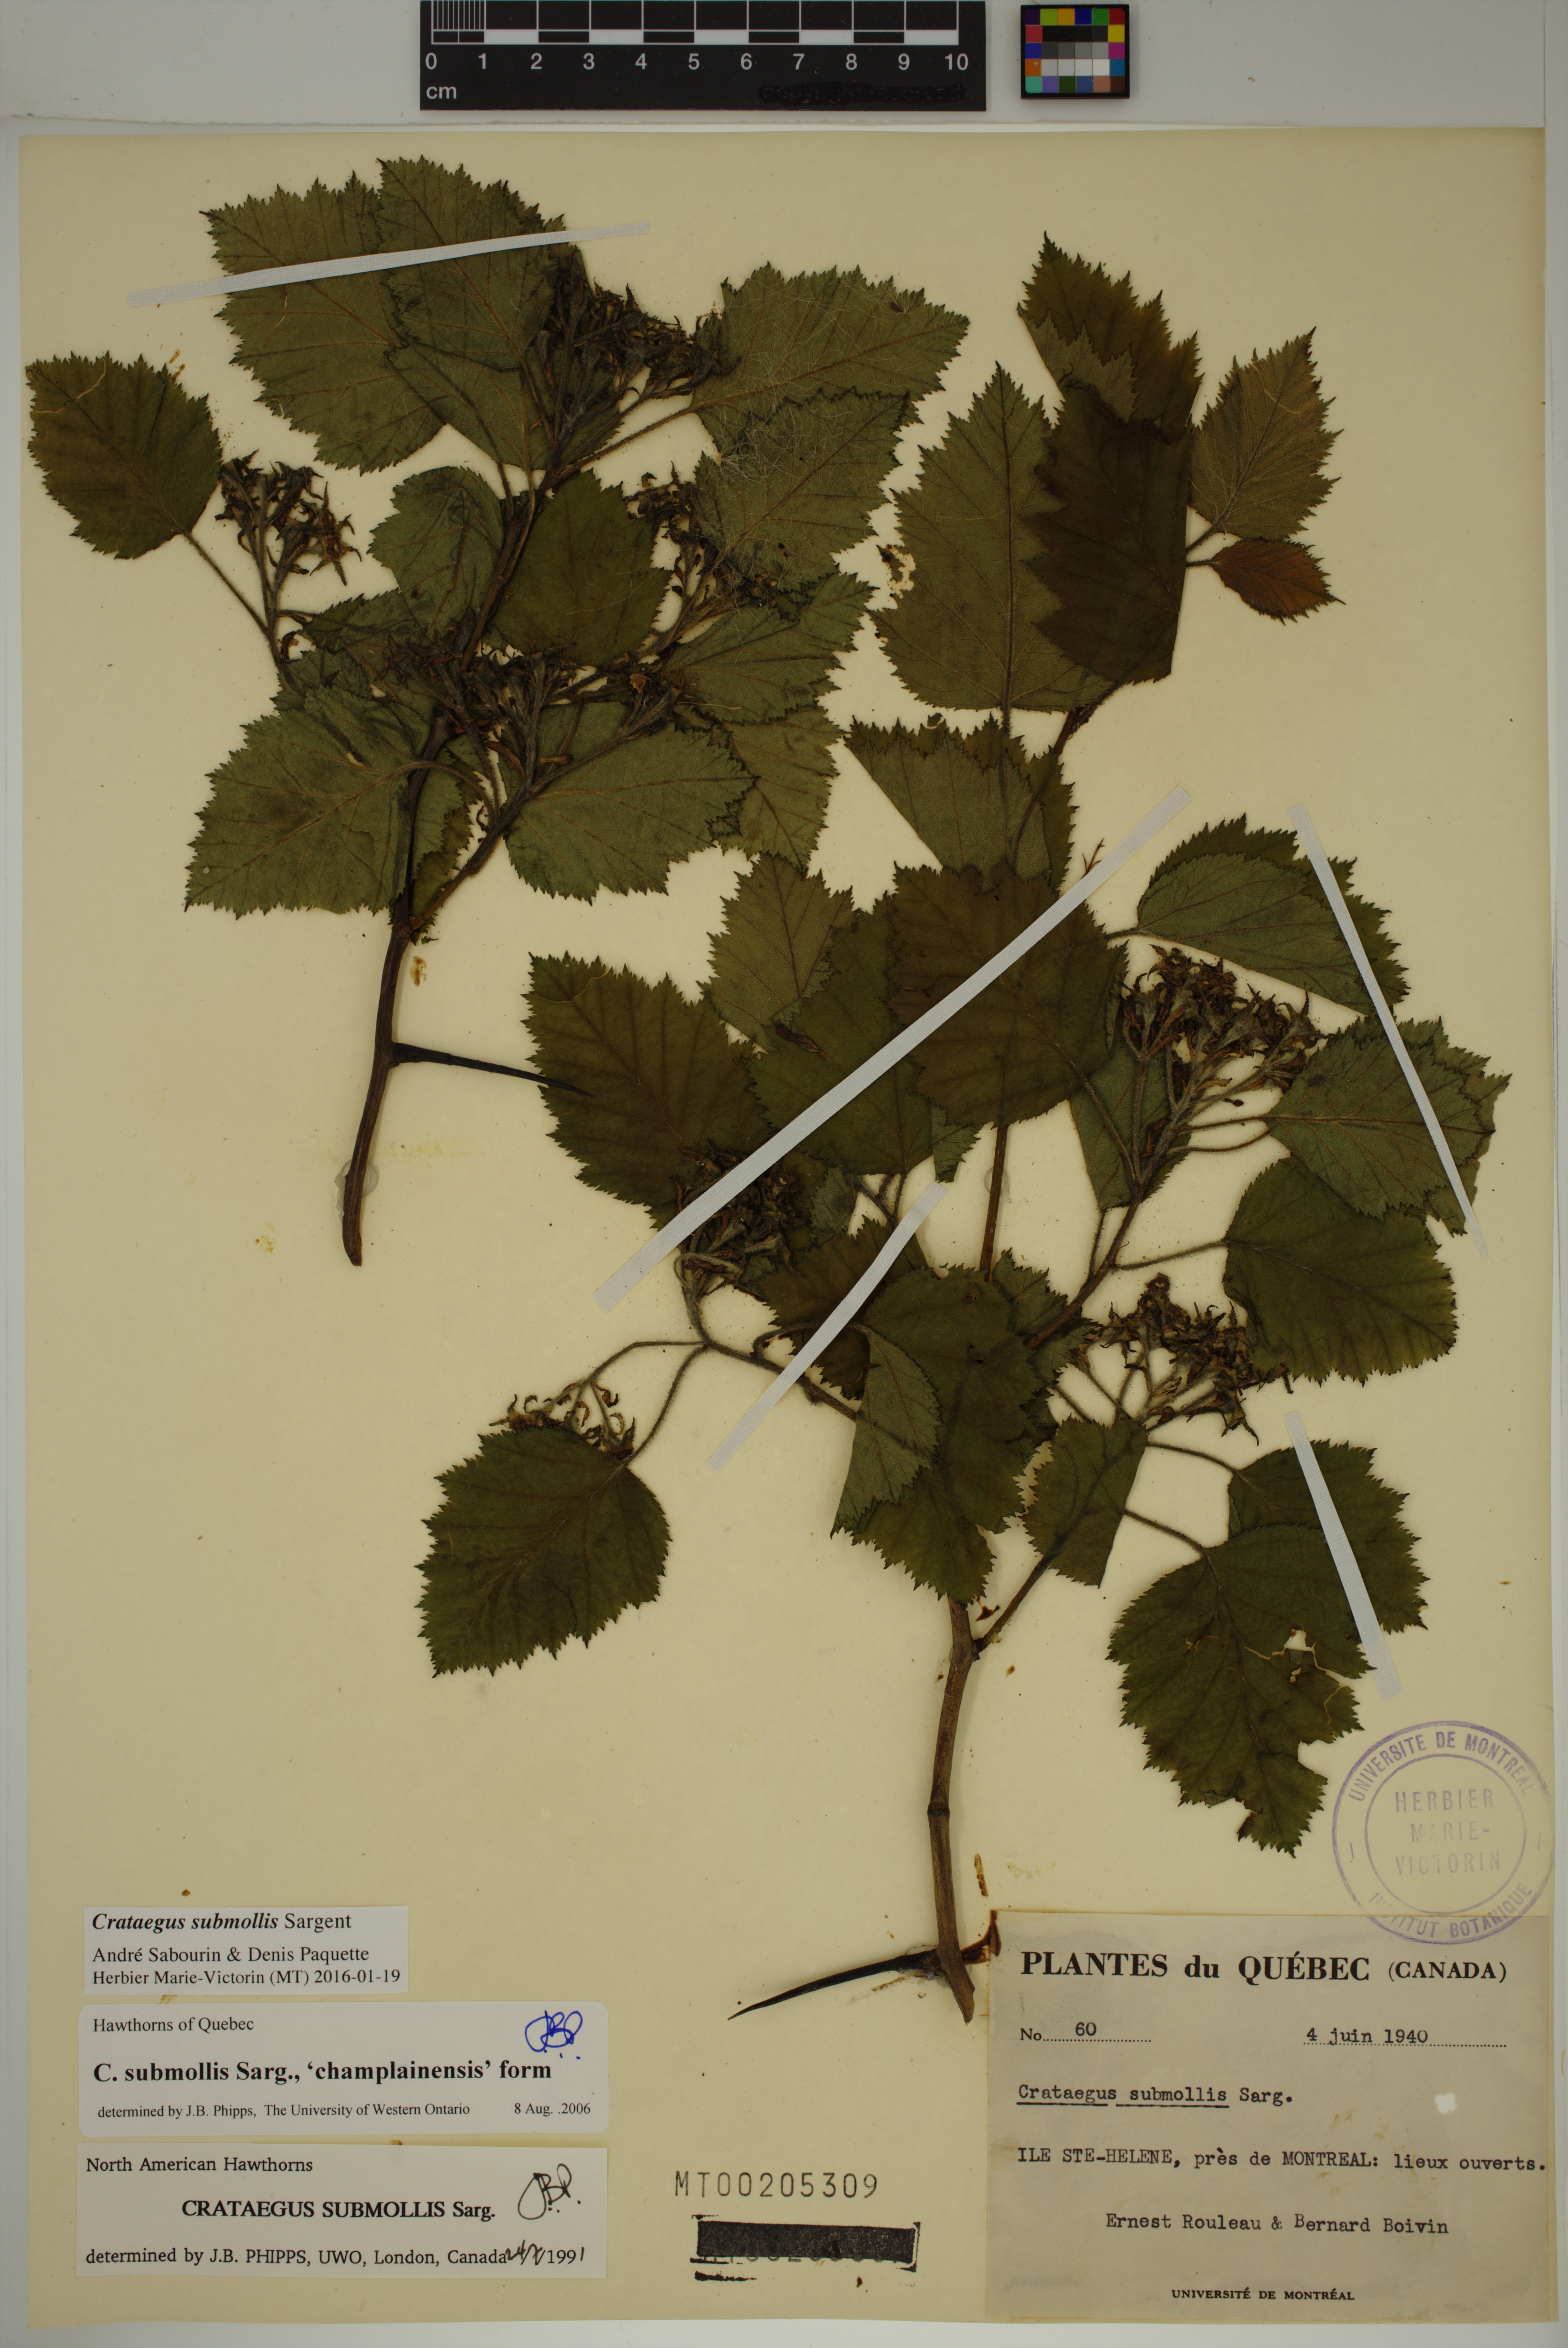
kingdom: Plantae
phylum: Tracheophyta
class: Magnoliopsida
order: Rosales
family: Rosaceae
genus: Crataegus
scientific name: Crataegus submollis
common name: Hairy cockspurthorn
